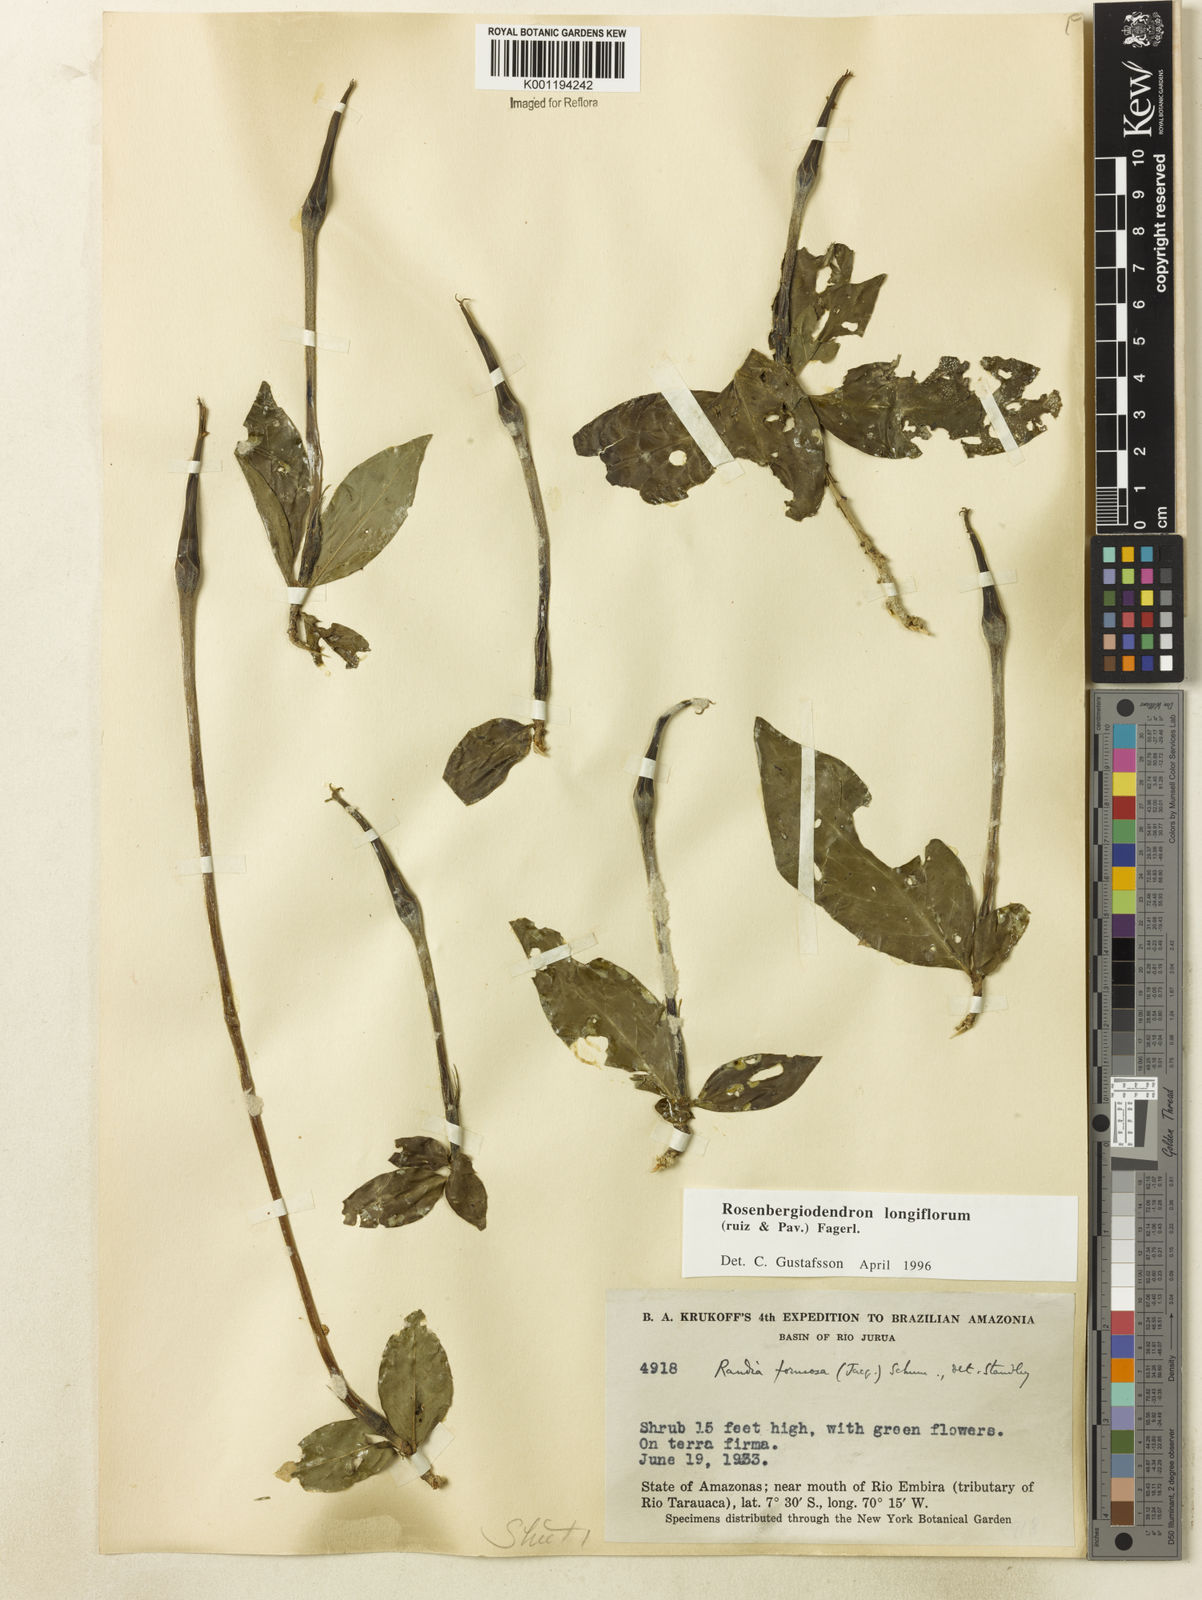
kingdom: Plantae
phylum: Tracheophyta
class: Magnoliopsida
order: Gentianales
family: Rubiaceae
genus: Rosenbergiodendron
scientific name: Rosenbergiodendron longiflorum
